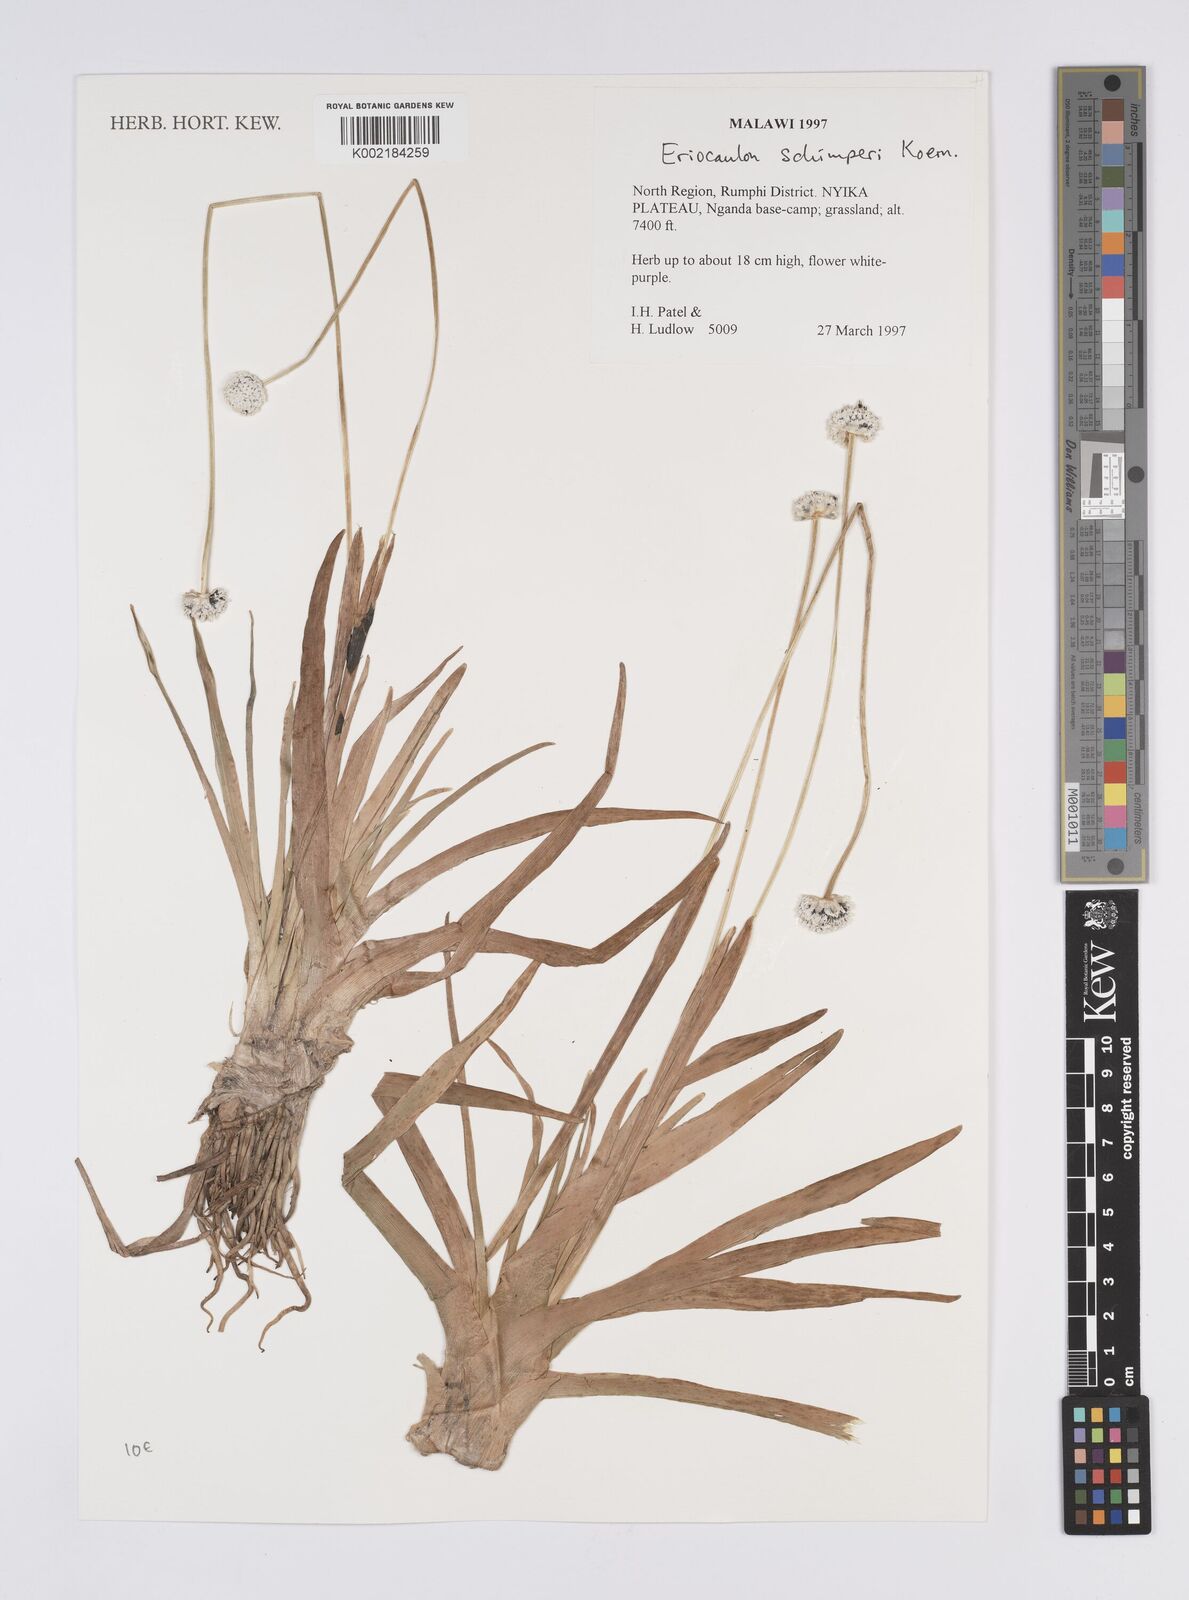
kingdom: Plantae
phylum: Tracheophyta
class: Liliopsida
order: Poales
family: Eriocaulaceae
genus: Eriocaulon
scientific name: Eriocaulon schimperi
